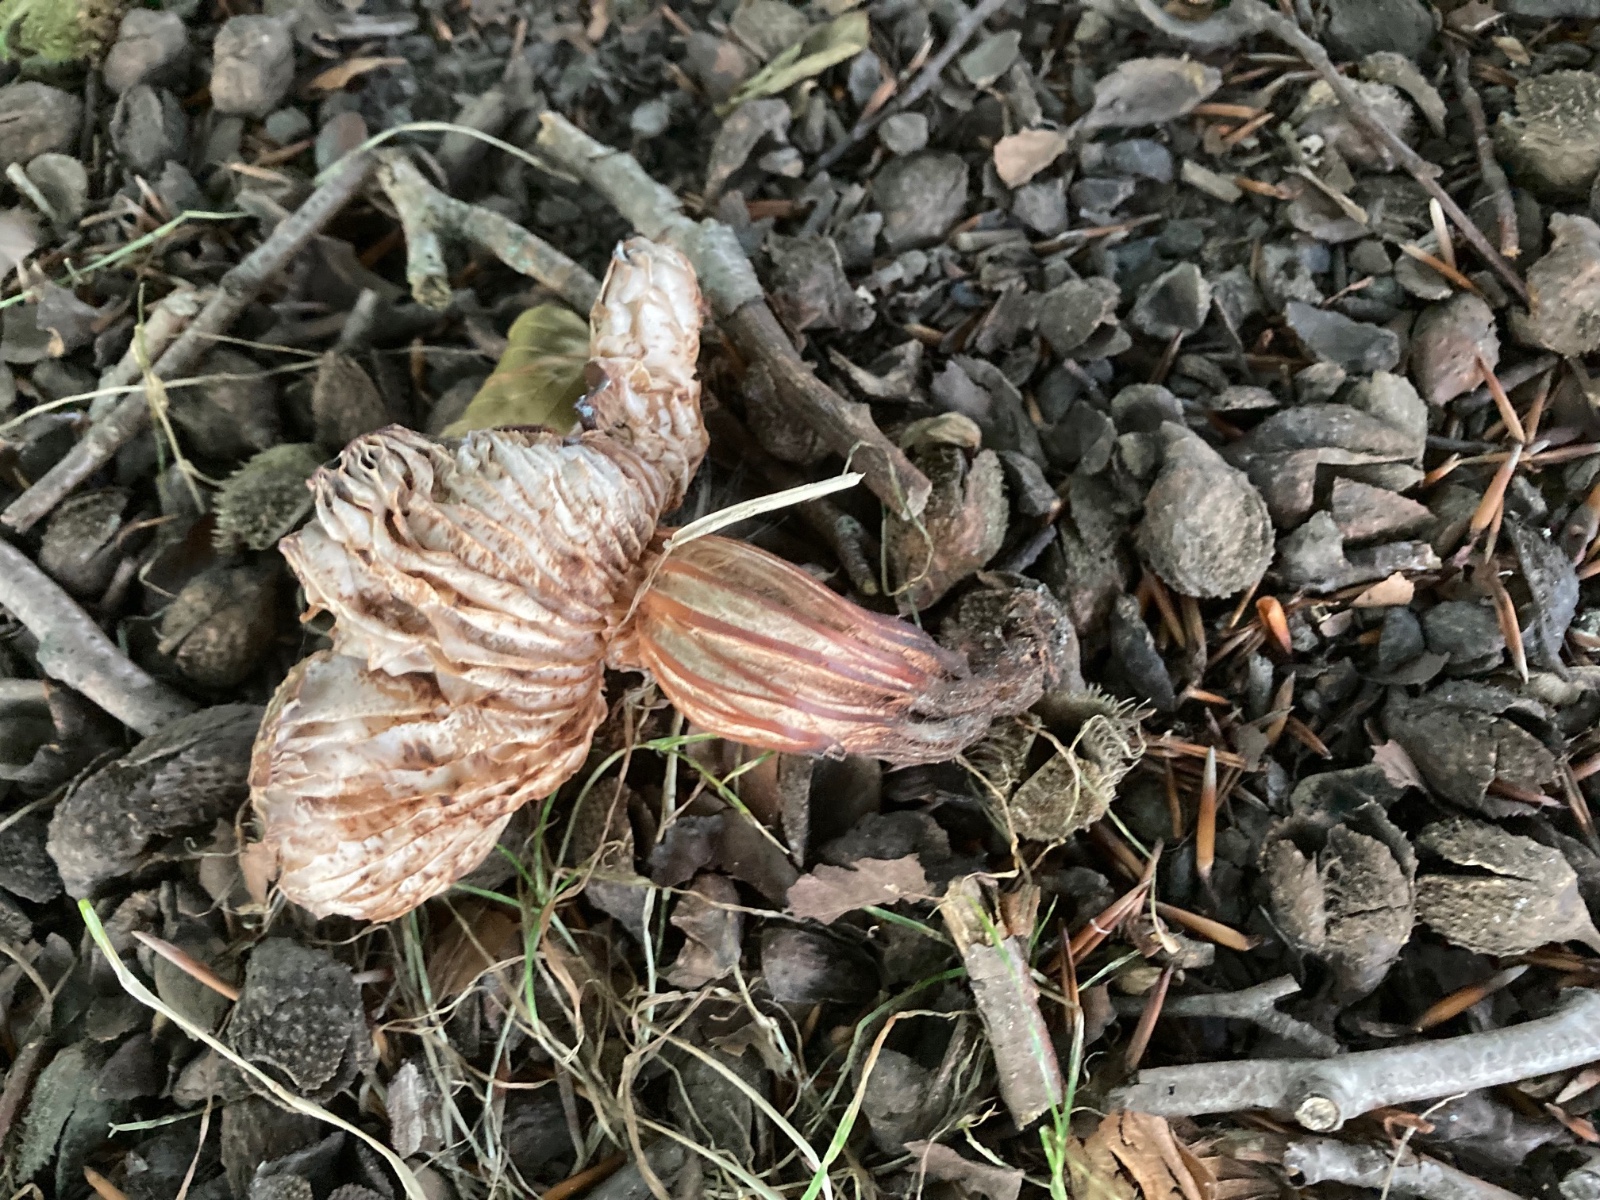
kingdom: Fungi
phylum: Basidiomycota
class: Agaricomycetes
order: Agaricales
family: Omphalotaceae
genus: Gymnopus
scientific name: Gymnopus fusipes
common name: tenstokket fladhat
